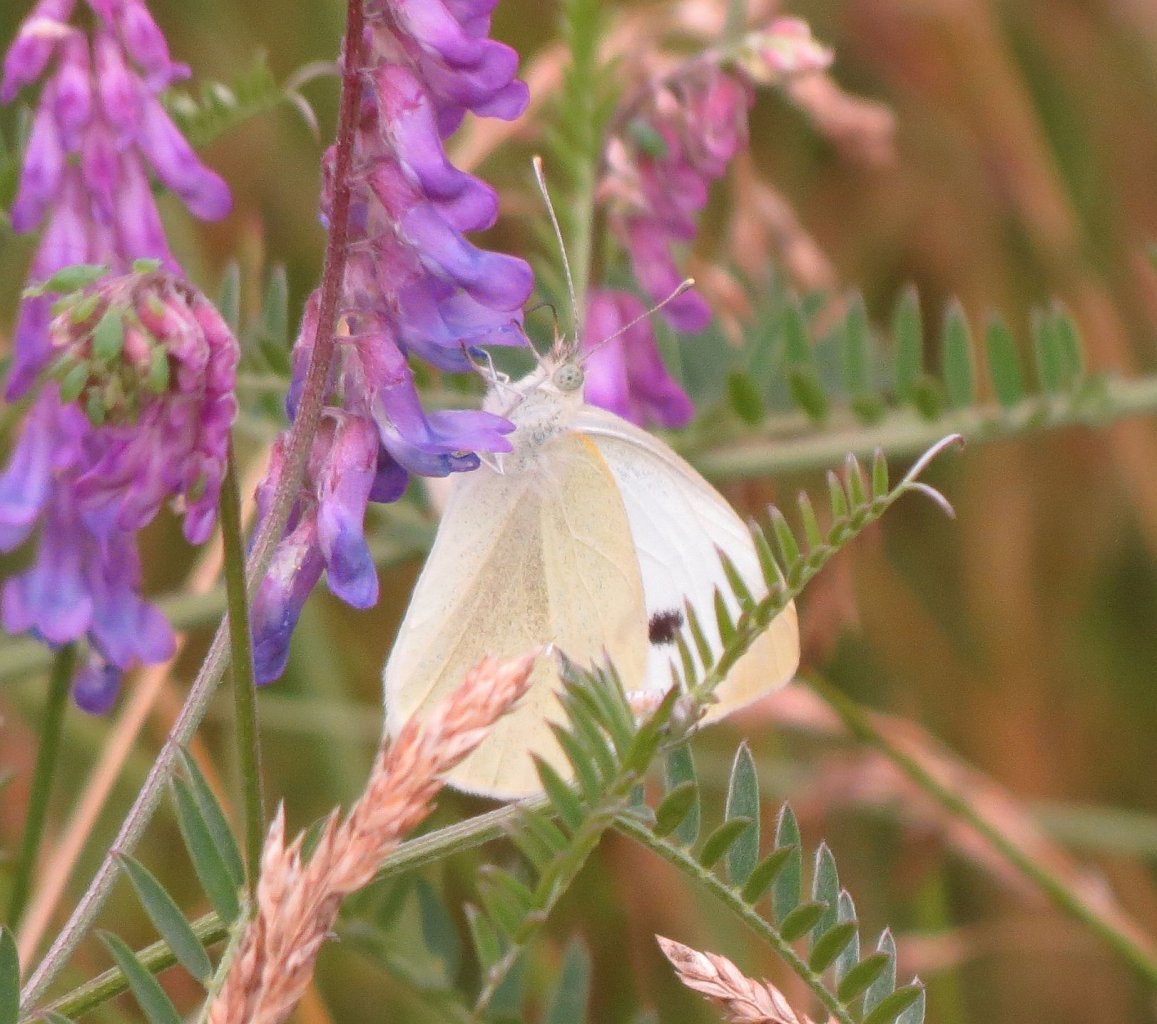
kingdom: Animalia
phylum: Arthropoda
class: Insecta
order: Lepidoptera
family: Pieridae
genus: Pieris
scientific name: Pieris rapae
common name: Cabbage White
